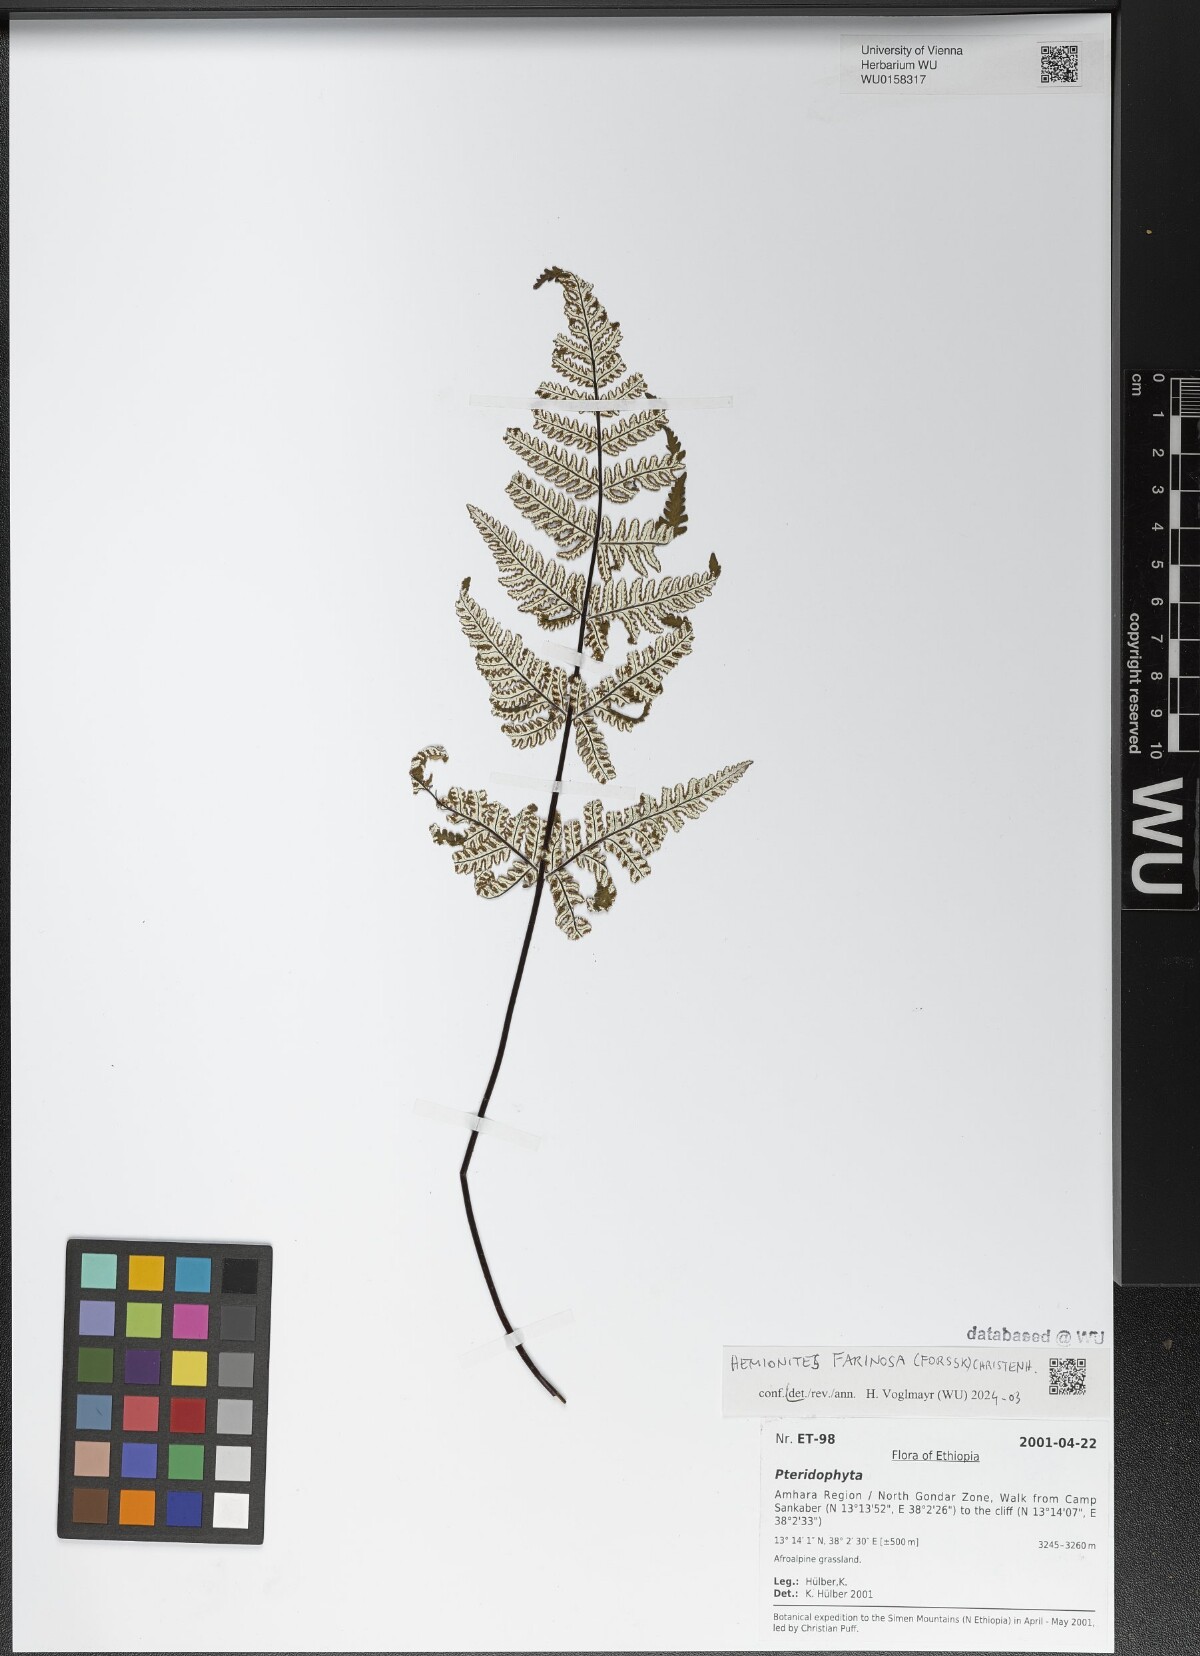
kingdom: Plantae
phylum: Tracheophyta
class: Polypodiopsida
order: Polypodiales
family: Pteridaceae
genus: Aleuritopteris
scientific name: Aleuritopteris farinosa
